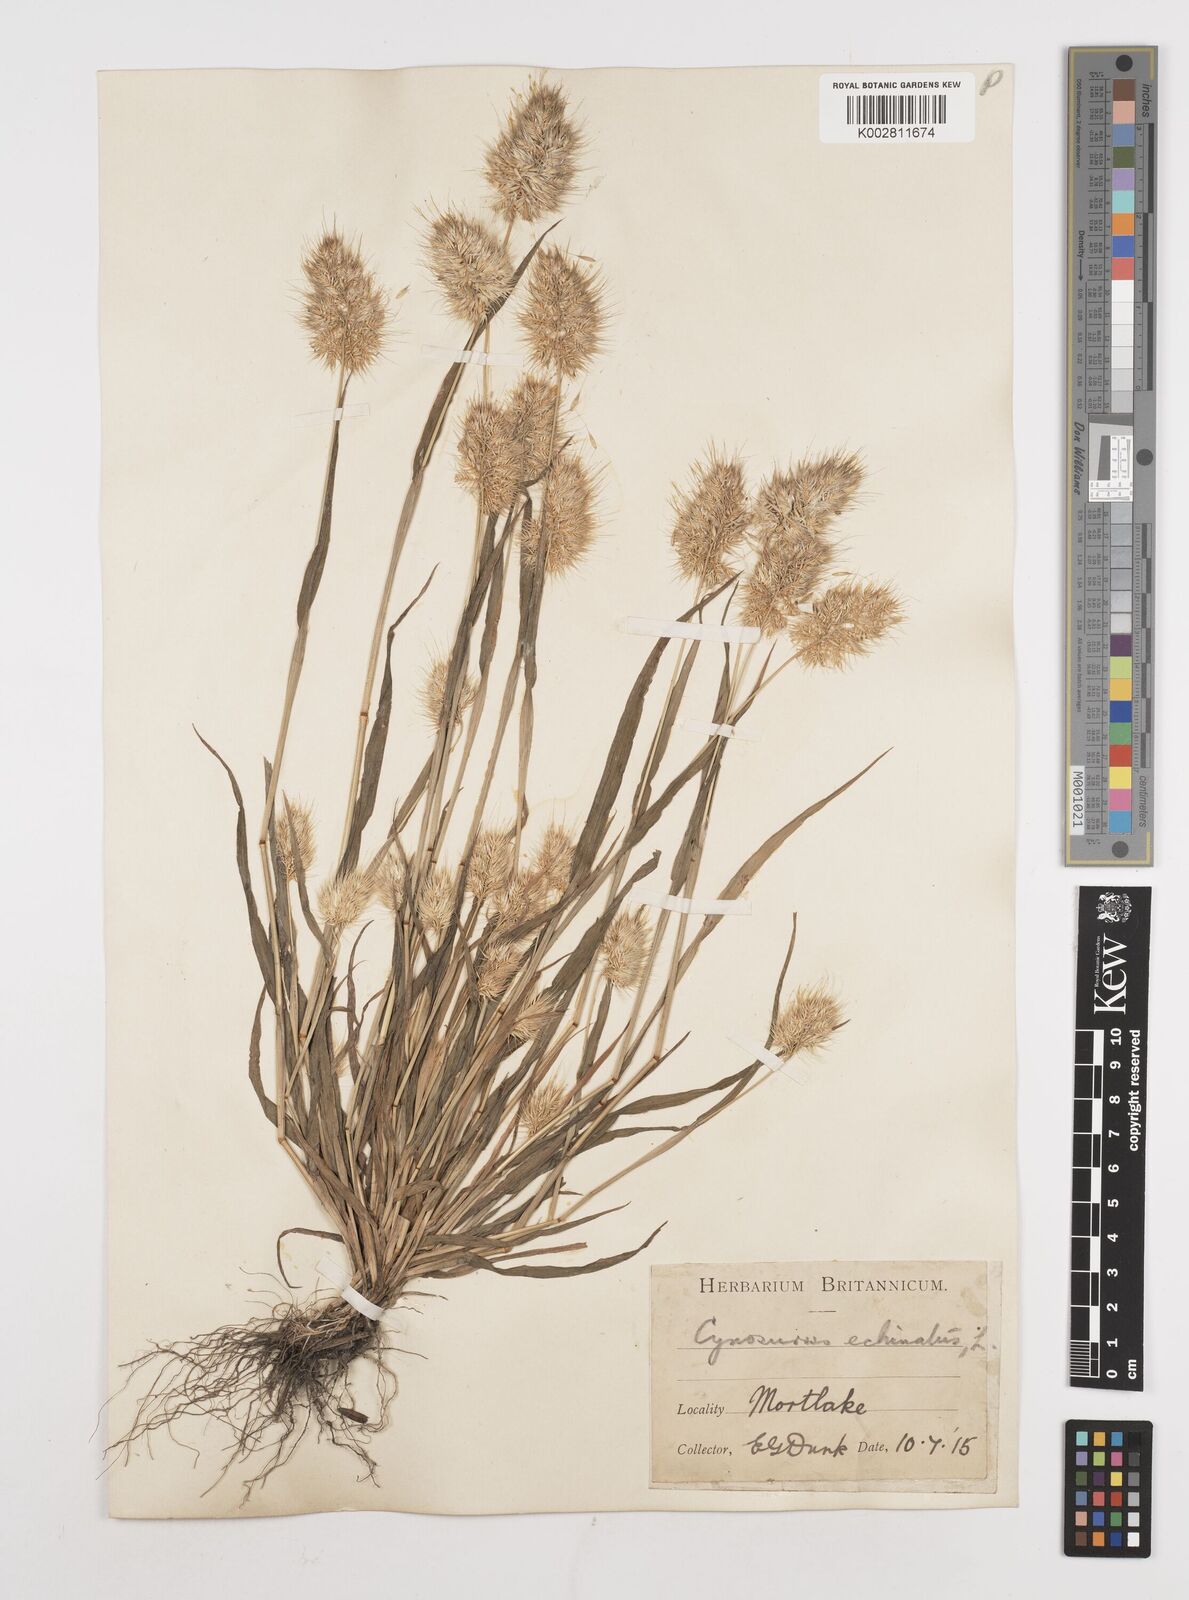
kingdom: Plantae
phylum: Tracheophyta
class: Liliopsida
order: Poales
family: Poaceae
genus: Cynosurus
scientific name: Cynosurus echinatus
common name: Rough dog's-tail
